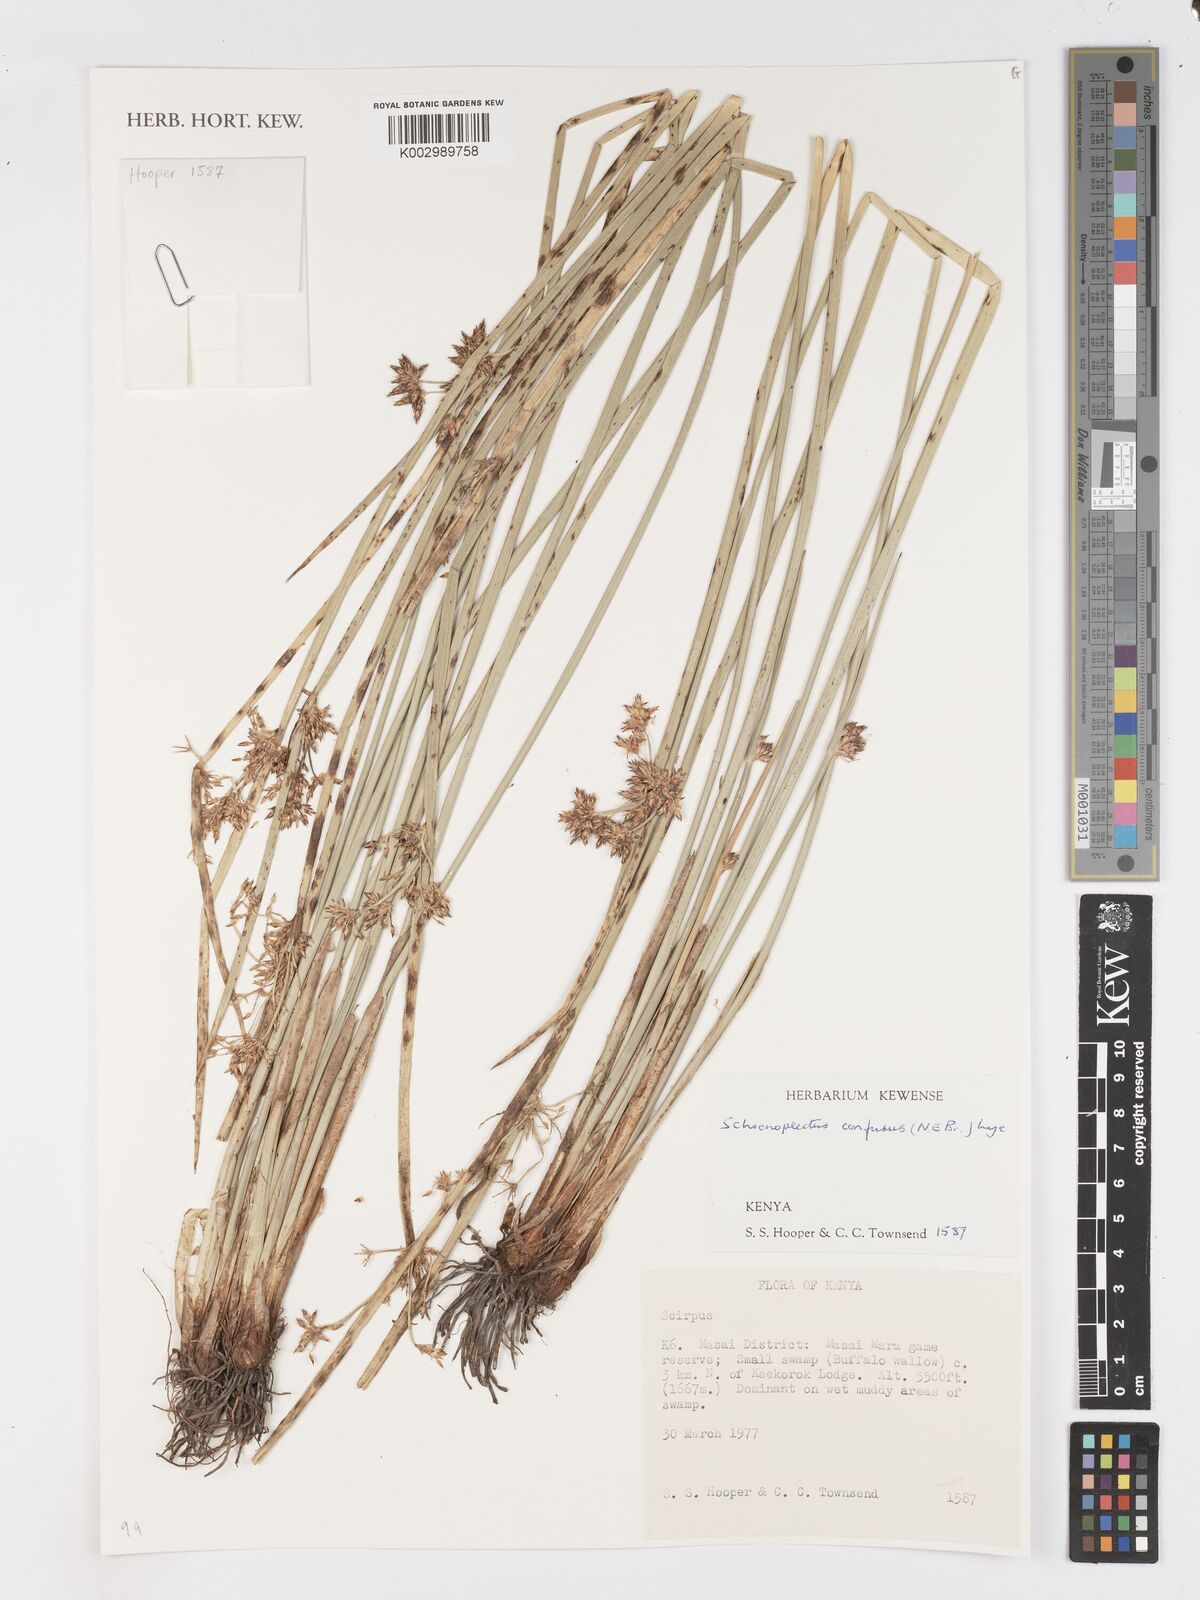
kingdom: Plantae
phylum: Tracheophyta
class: Liliopsida
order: Poales
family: Cyperaceae
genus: Schoenoplectiella
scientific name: Schoenoplectiella confusa
